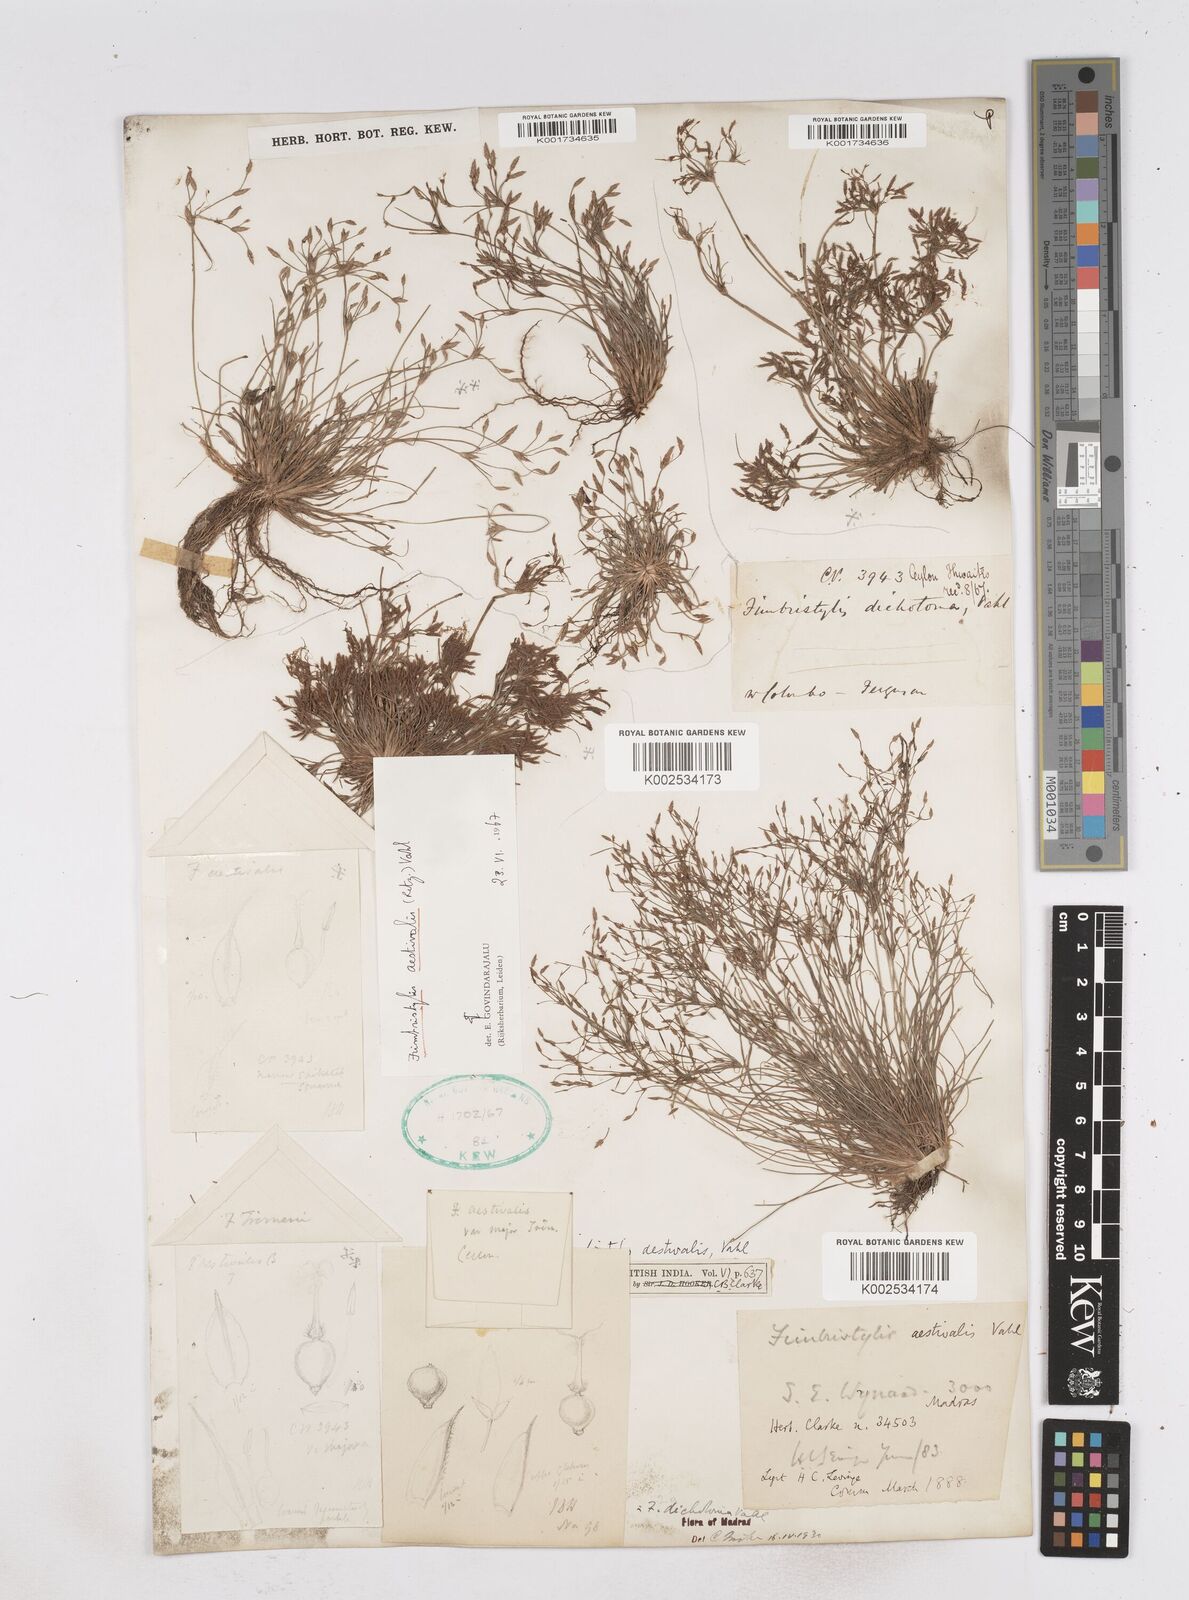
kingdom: Plantae
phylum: Tracheophyta
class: Liliopsida
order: Poales
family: Cyperaceae
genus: Fimbristylis
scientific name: Fimbristylis aestivalis
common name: Summer fimbry
